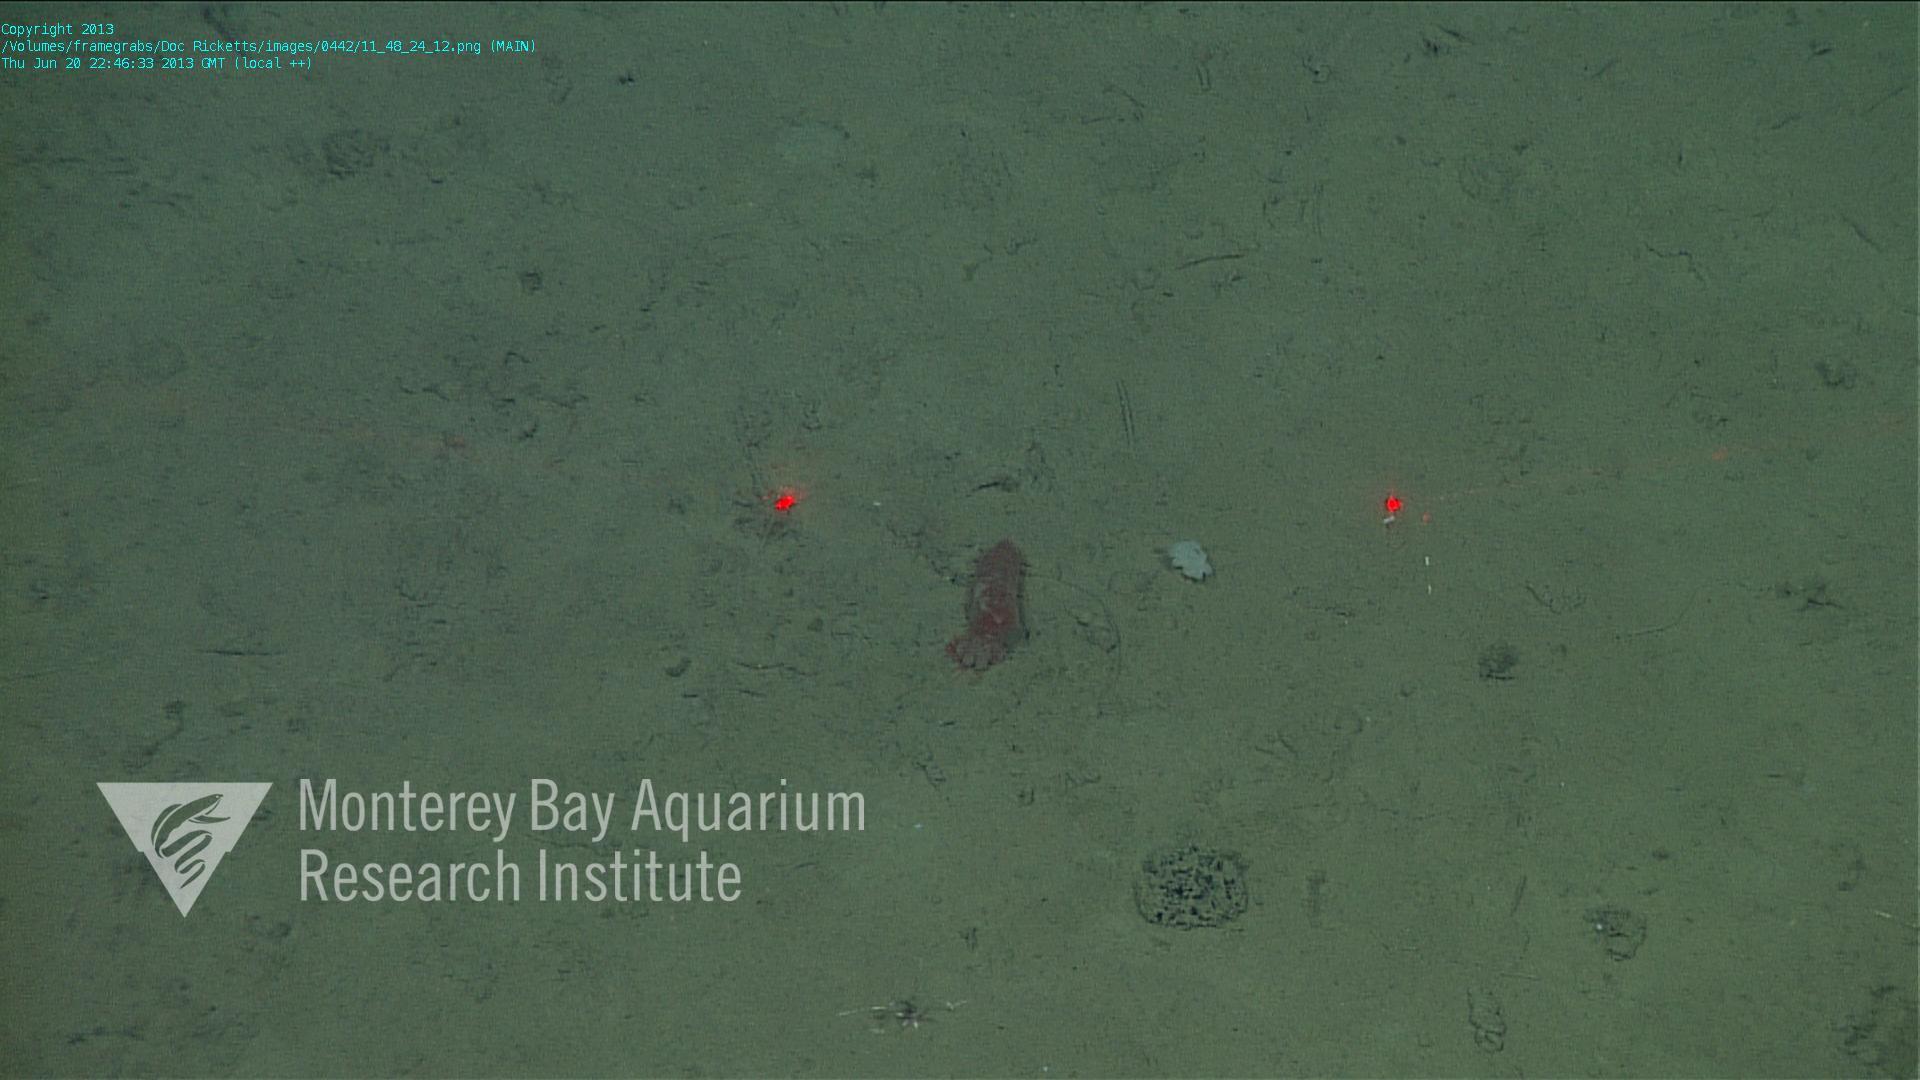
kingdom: Animalia
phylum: Porifera
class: Hexactinellida
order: Lyssacinosida
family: Euplectellidae
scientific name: Euplectellidae
